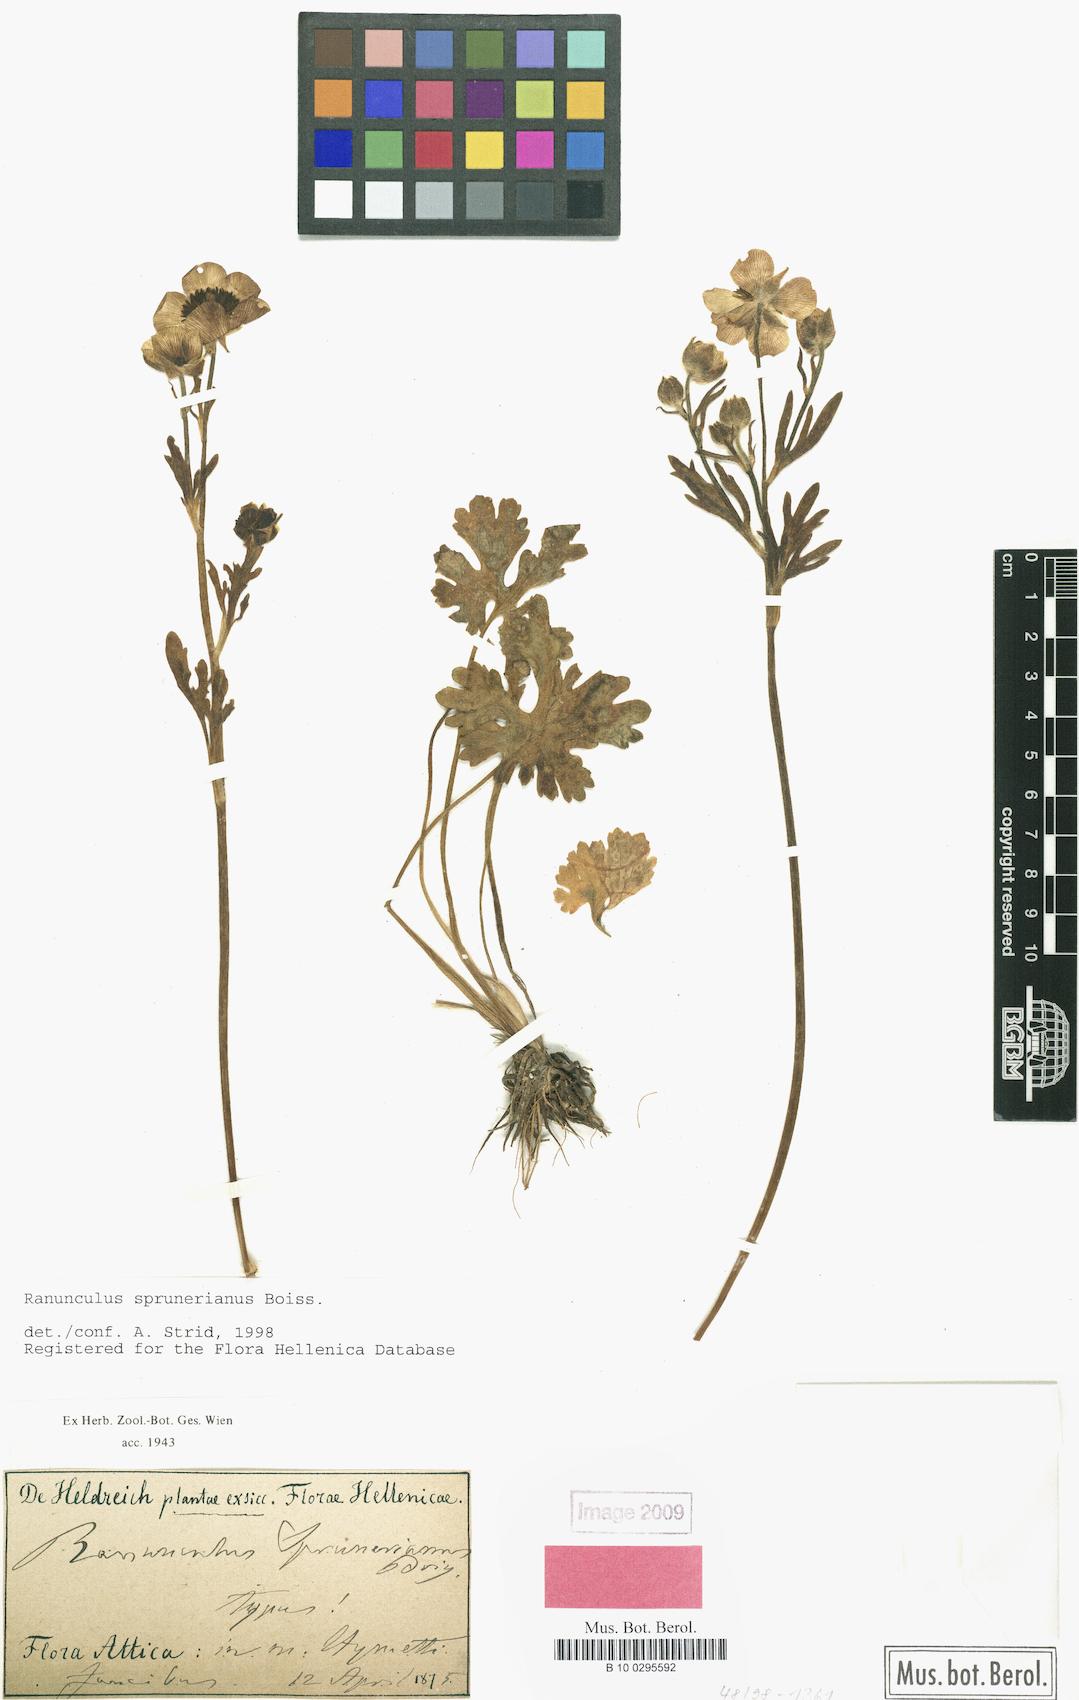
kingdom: Plantae
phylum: Tracheophyta
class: Magnoliopsida
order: Ranunculales
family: Ranunculaceae
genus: Ranunculus
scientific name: Ranunculus sprunerianus
